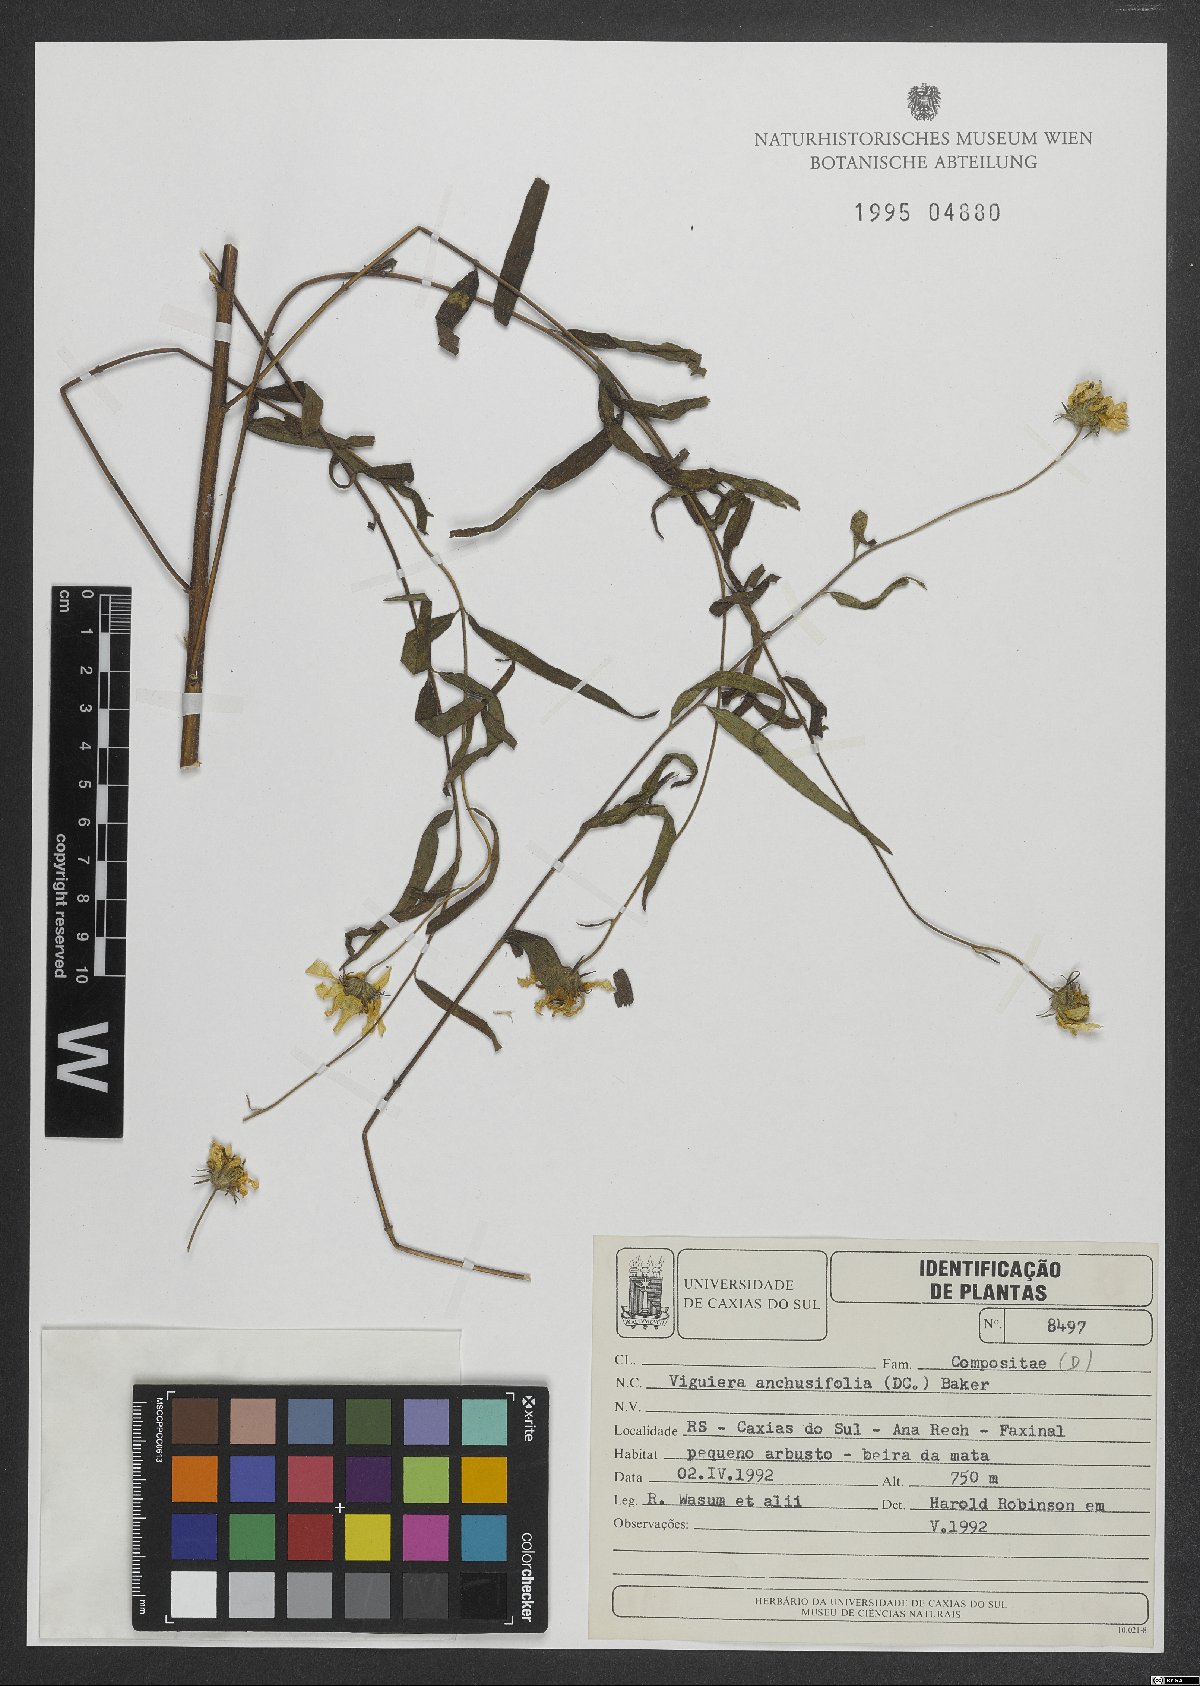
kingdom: Plantae
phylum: Tracheophyta
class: Magnoliopsida
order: Asterales
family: Asteraceae
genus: Aldama
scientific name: Aldama anchusifolia
